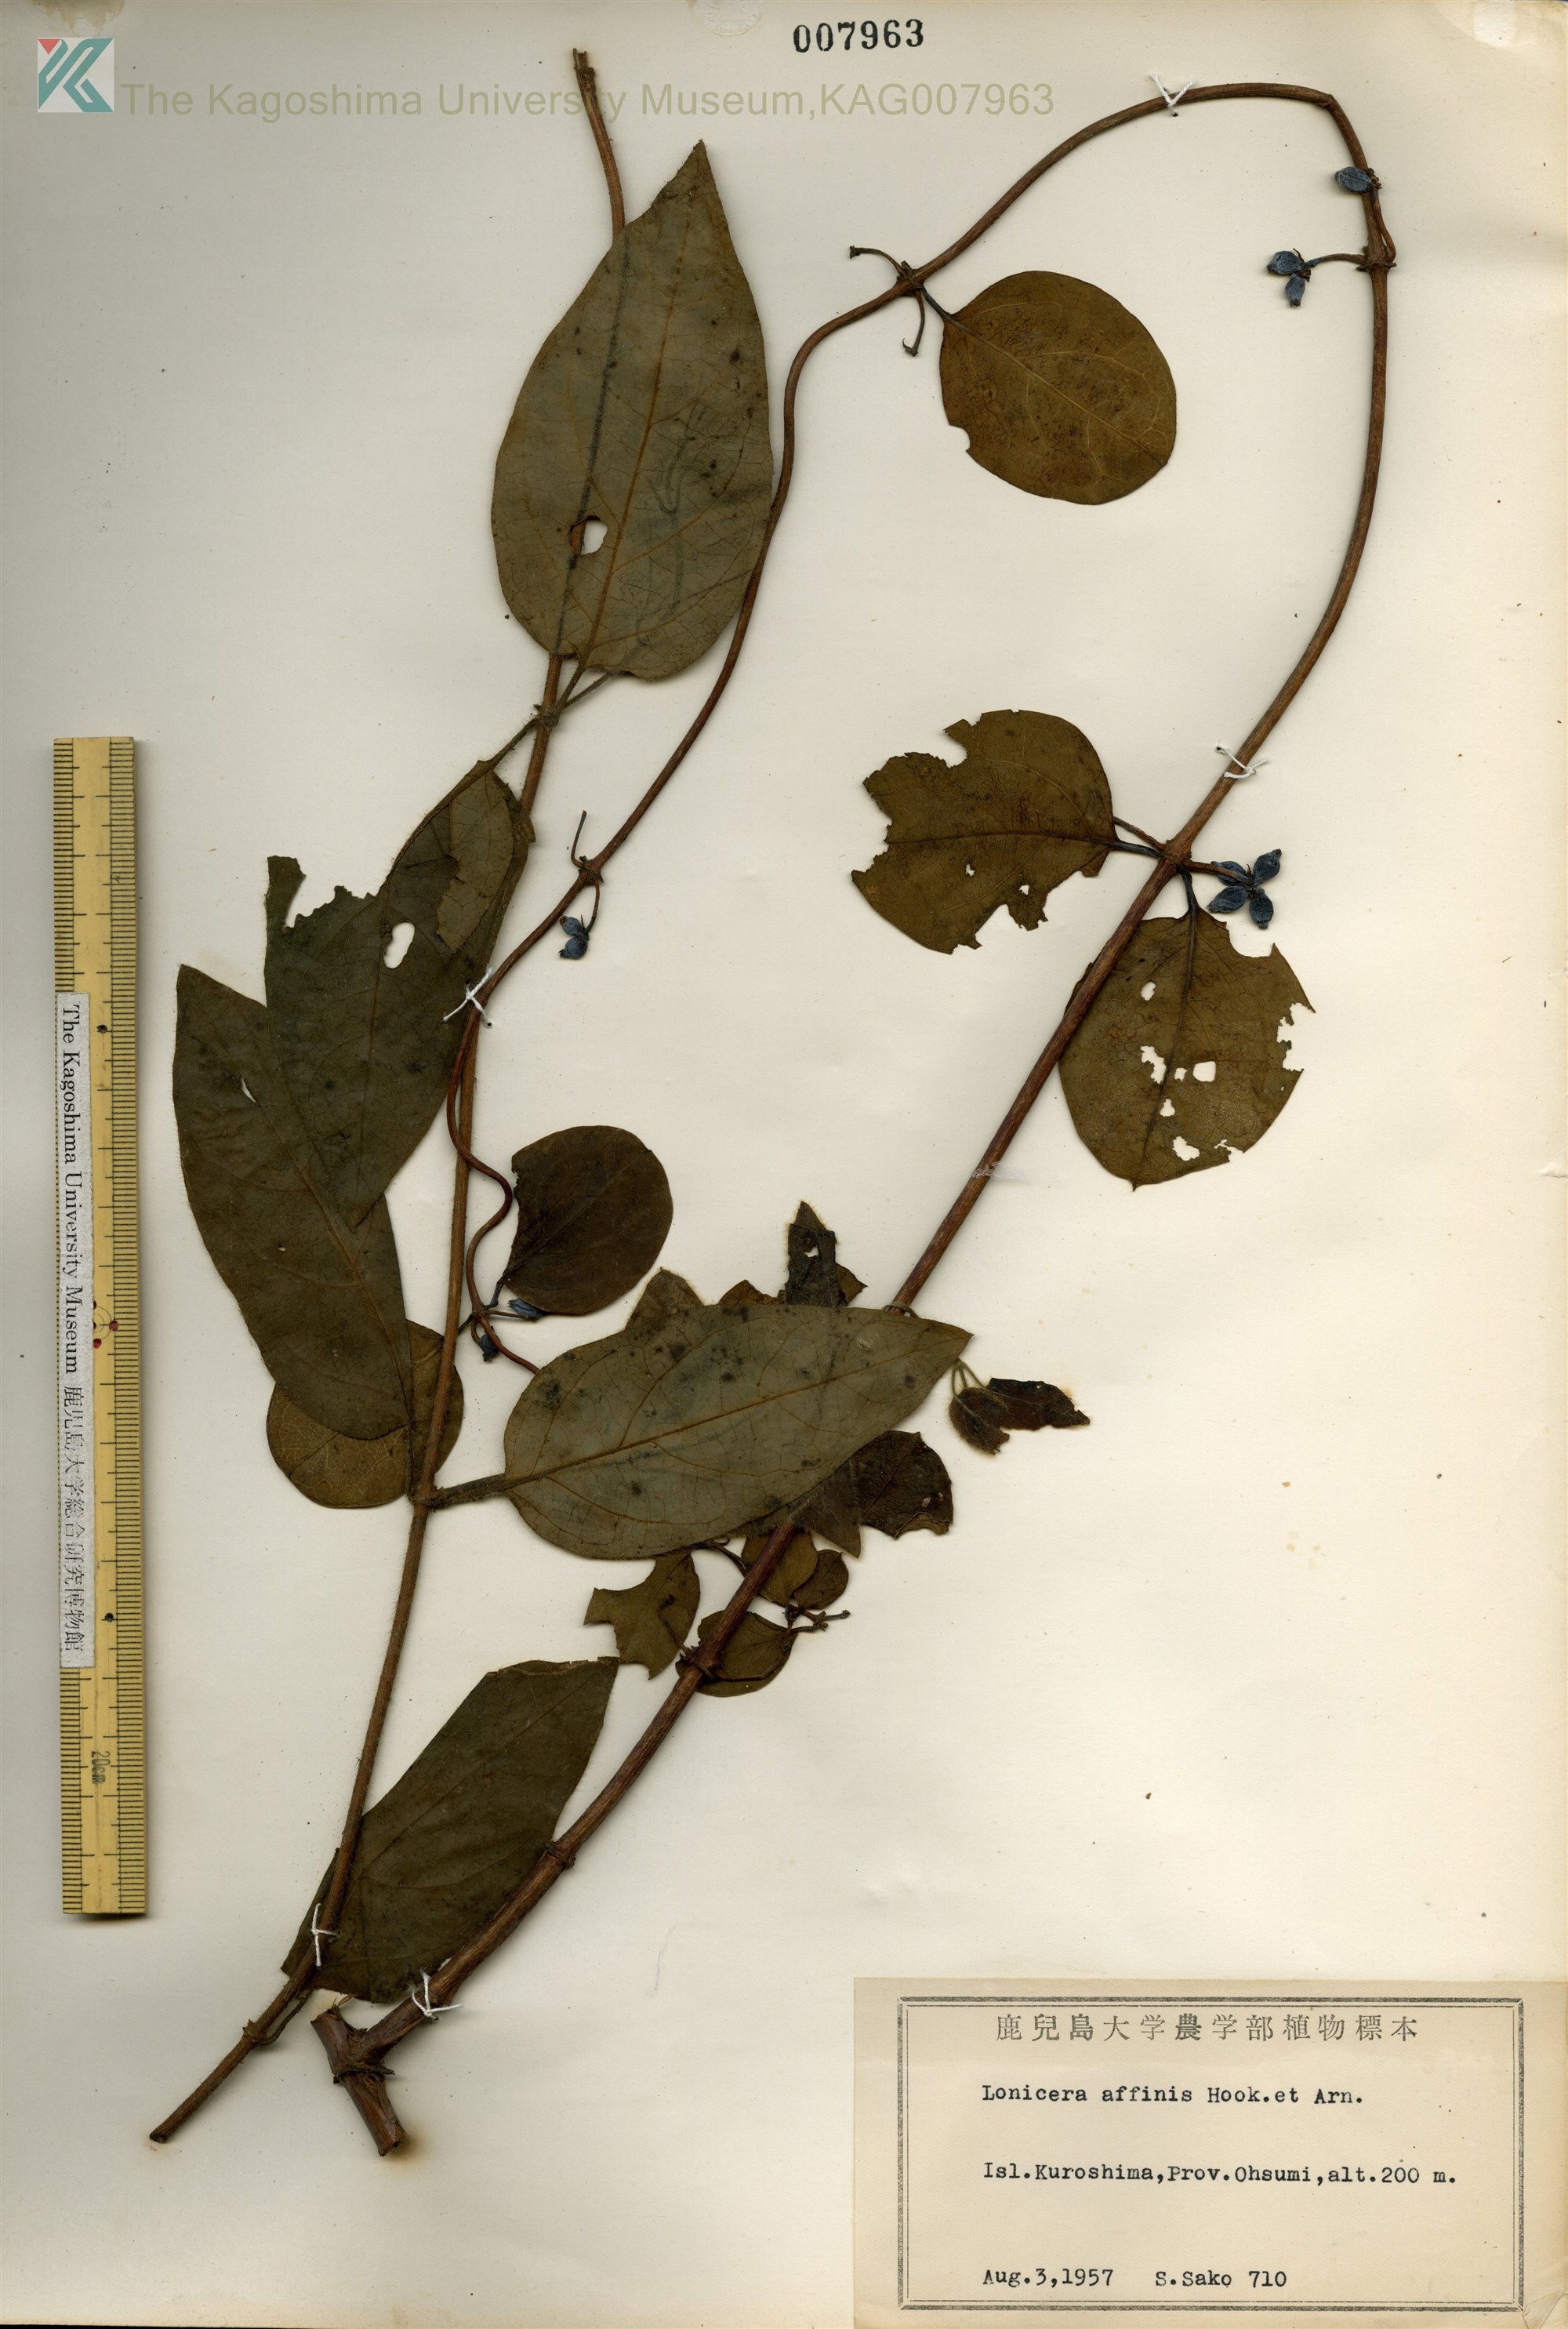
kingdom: Plantae
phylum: Tracheophyta
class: Magnoliopsida
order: Dipsacales
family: Caprifoliaceae
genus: Lonicera
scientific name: Lonicera affinis
